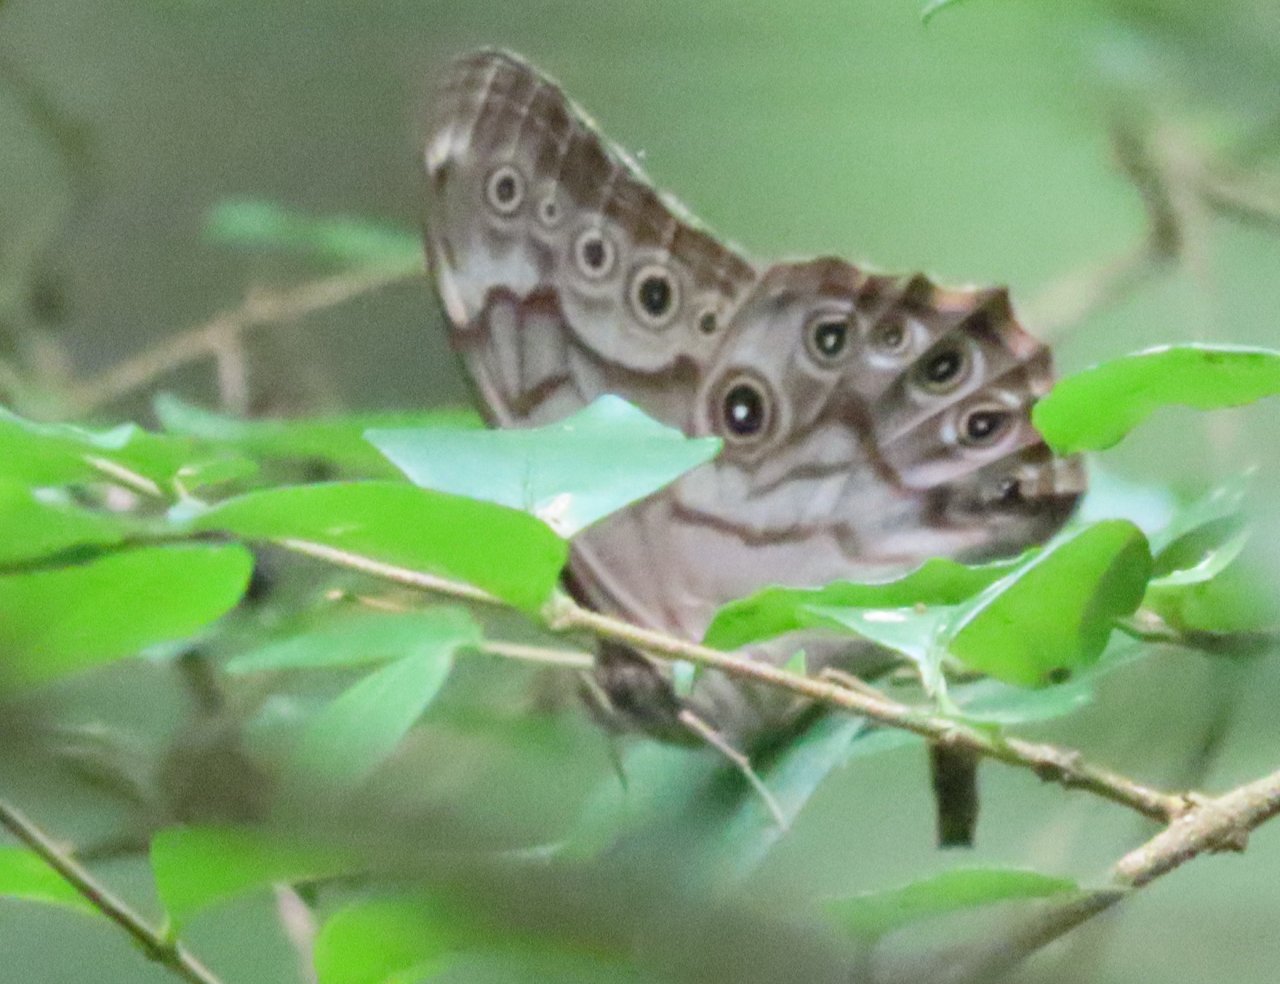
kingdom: Animalia
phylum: Arthropoda
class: Insecta
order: Lepidoptera
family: Nymphalidae
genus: Lethe
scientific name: Lethe creola
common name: Creole Pearly-Eye
